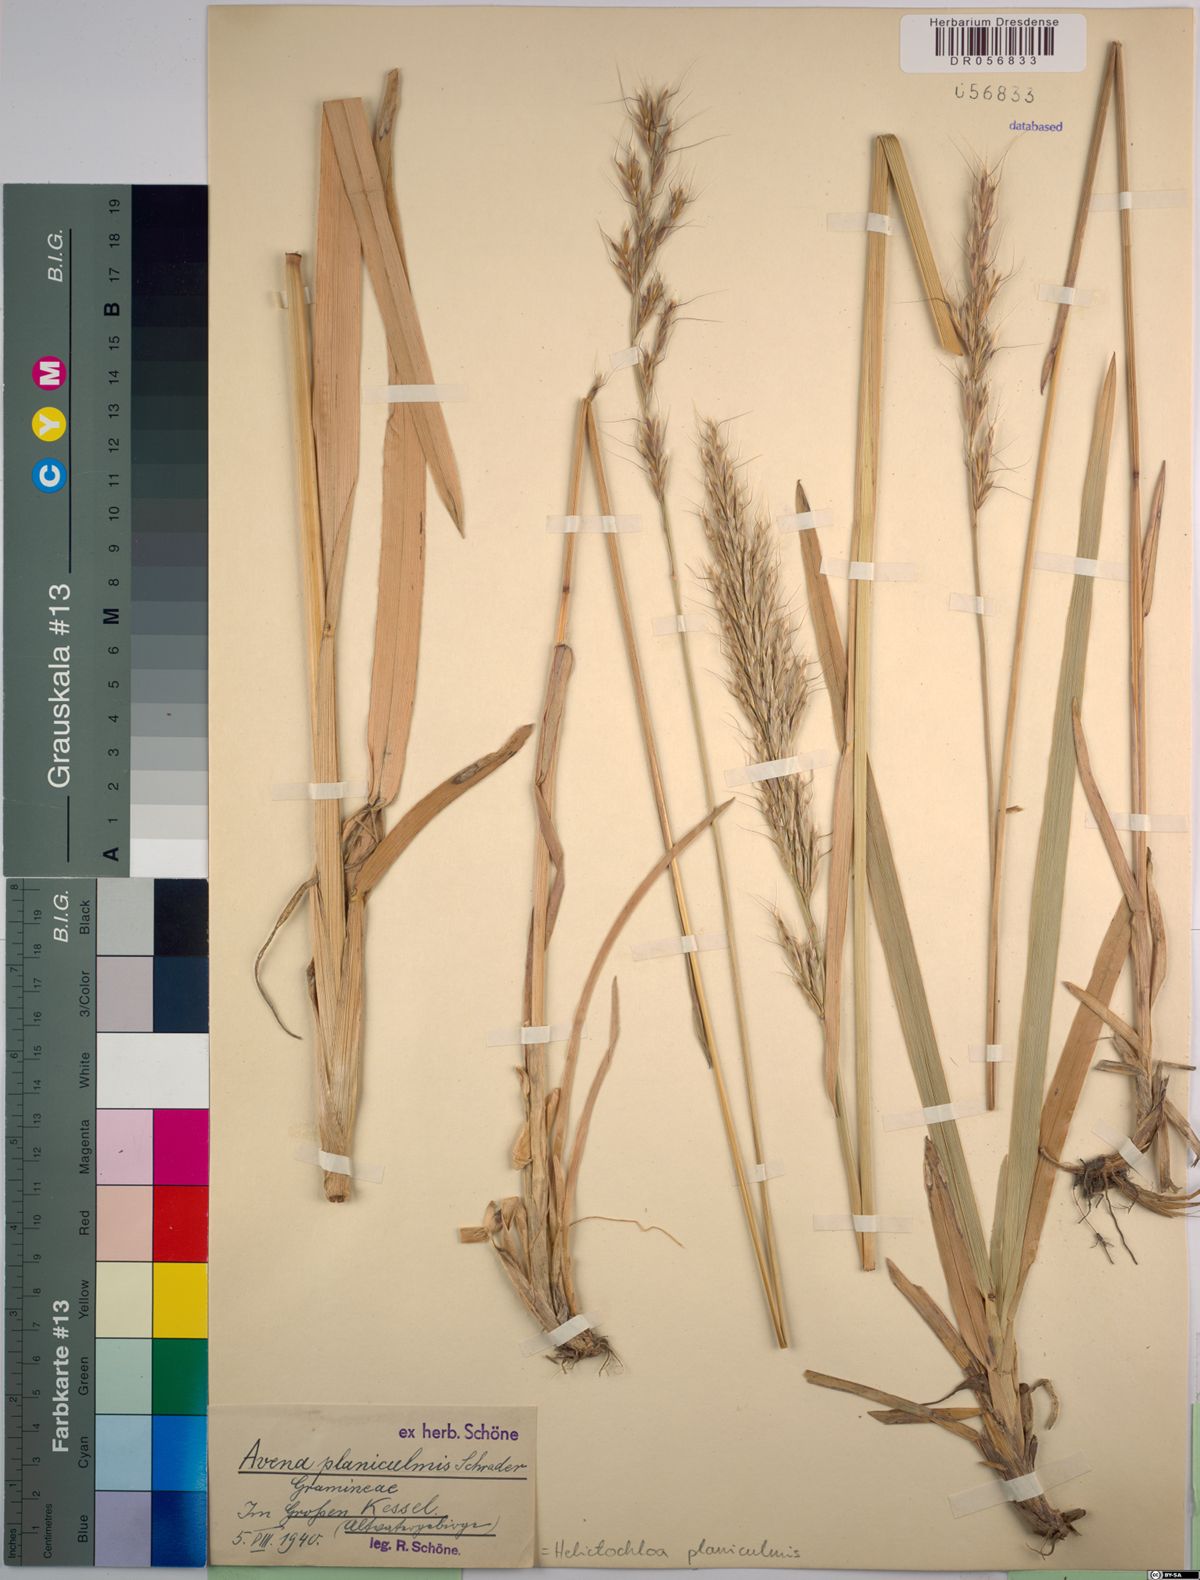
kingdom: Plantae
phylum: Tracheophyta
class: Liliopsida
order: Poales
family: Poaceae
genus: Helictochloa
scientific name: Helictochloa planiculmis
